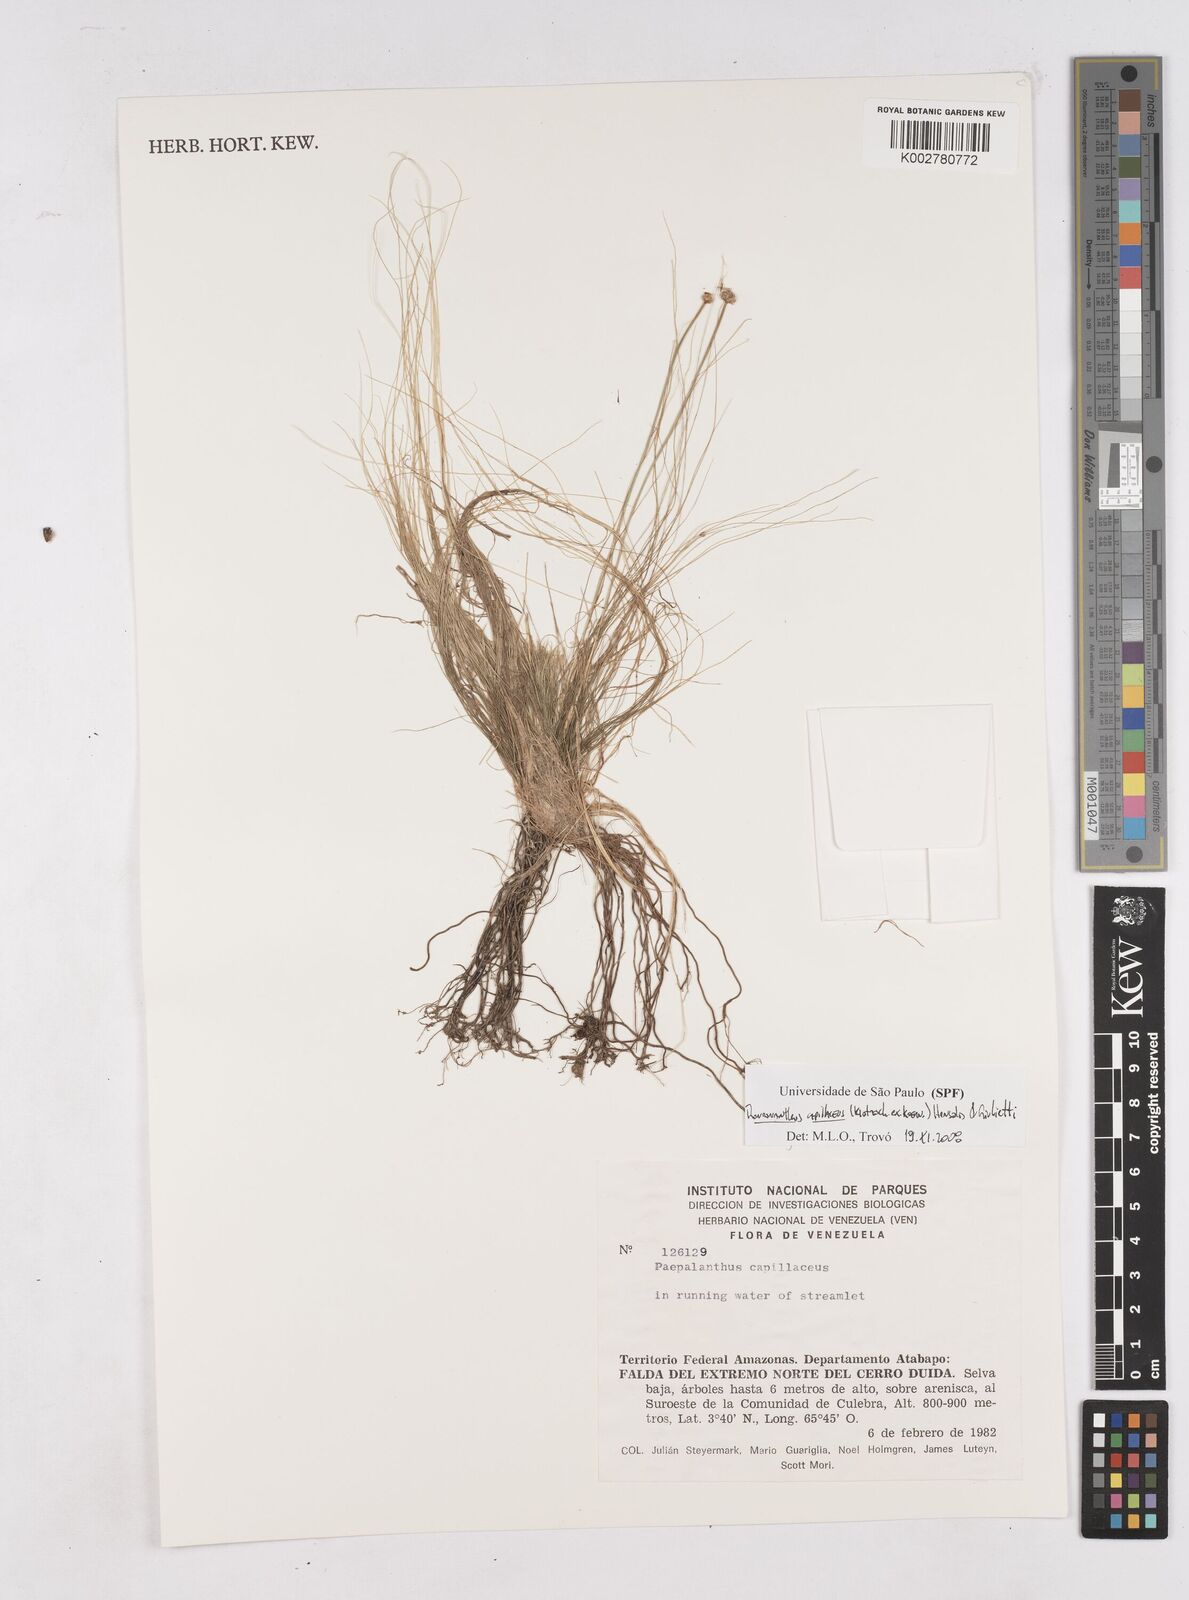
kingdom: Plantae
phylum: Tracheophyta
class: Liliopsida
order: Poales
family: Eriocaulaceae
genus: Rondonanthus
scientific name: Rondonanthus capillaceus
